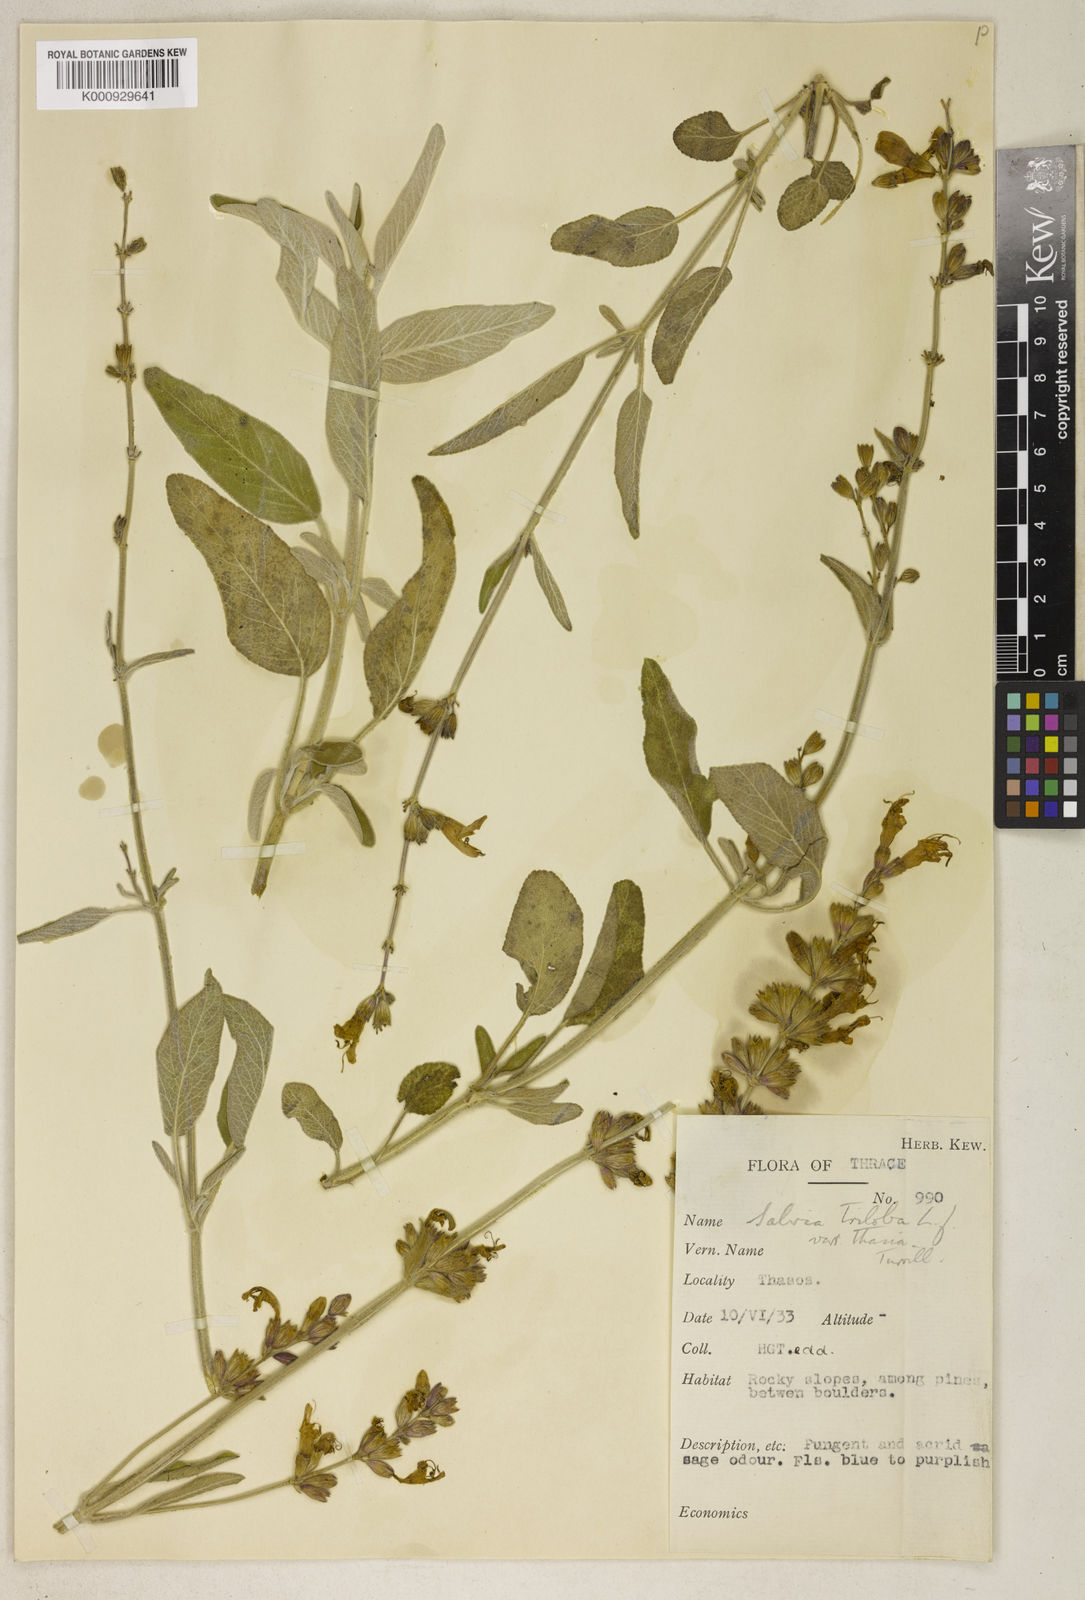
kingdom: Plantae
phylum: Tracheophyta
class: Magnoliopsida
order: Lamiales
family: Lamiaceae
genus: Salvia
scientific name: Salvia fruticosa
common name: Greek sage
